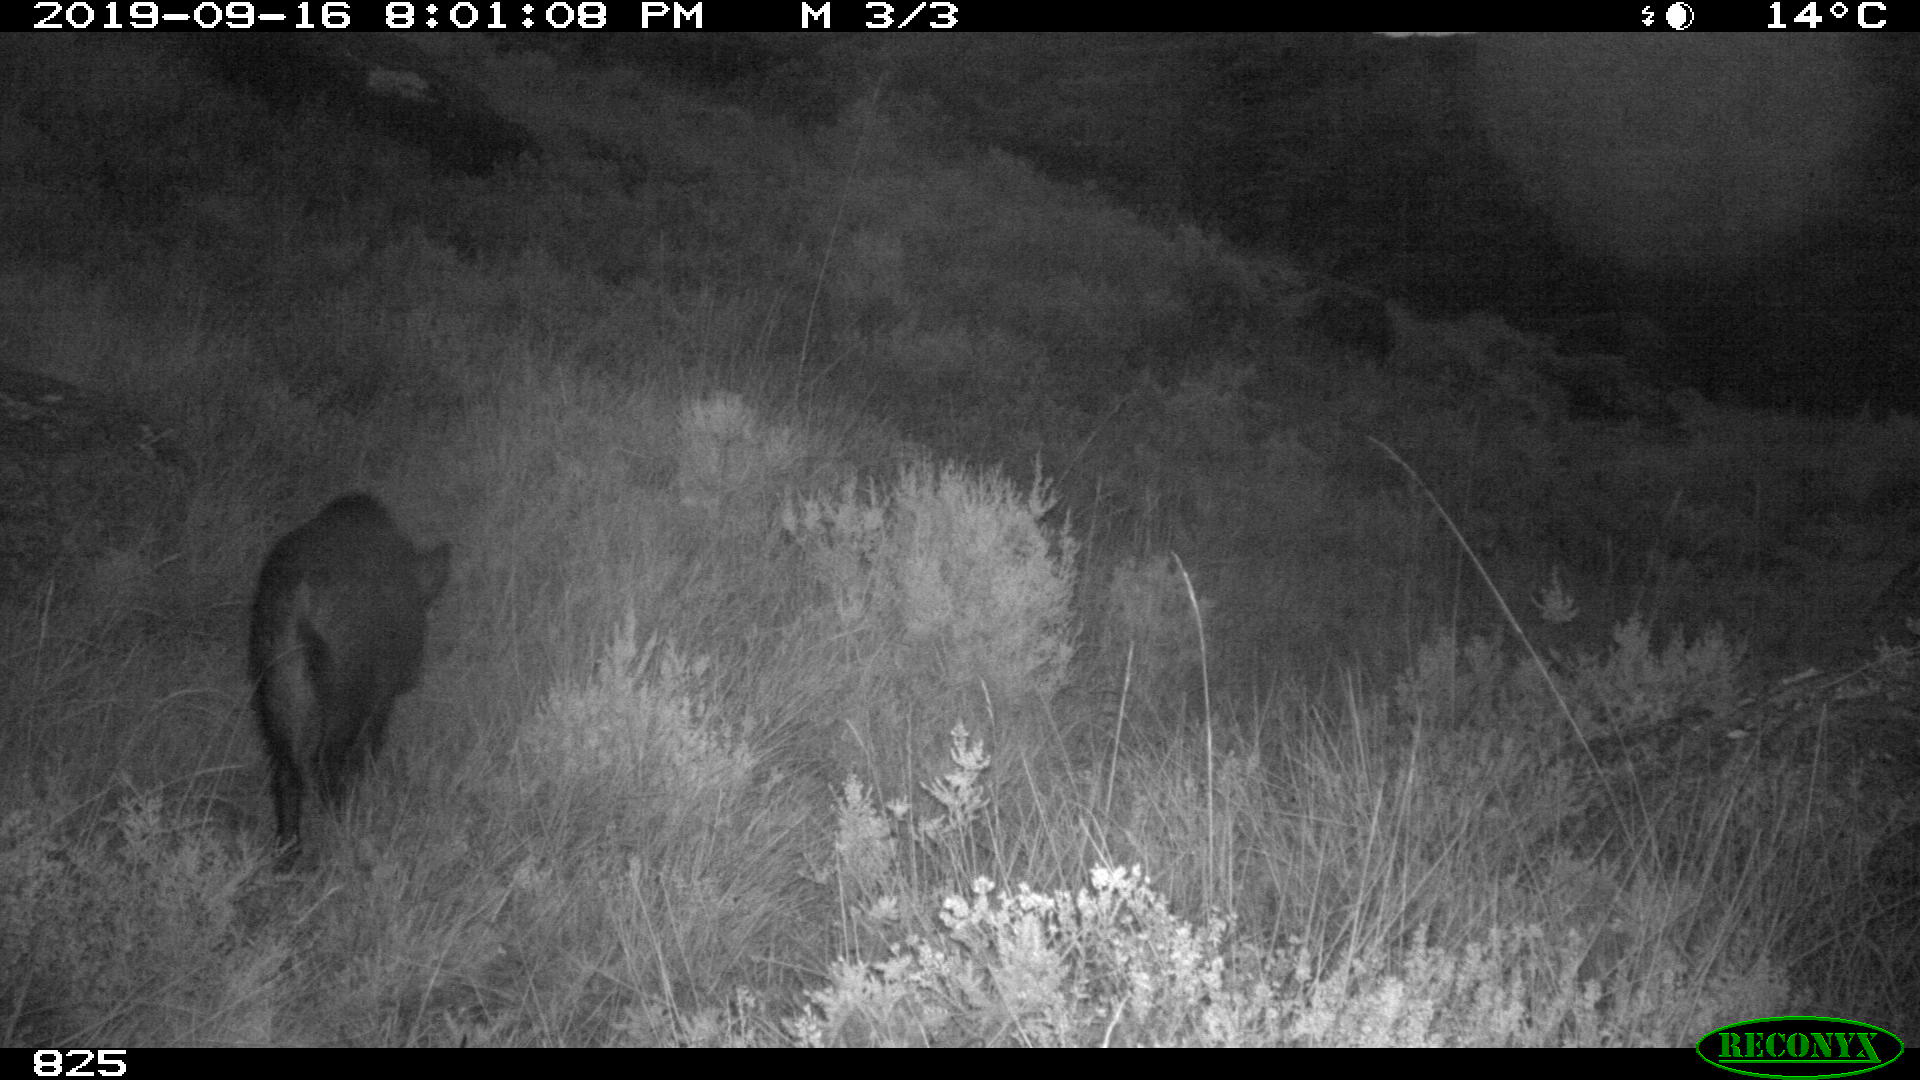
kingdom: Animalia
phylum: Chordata
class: Mammalia
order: Artiodactyla
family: Suidae
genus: Sus
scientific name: Sus scrofa
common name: Wild boar
